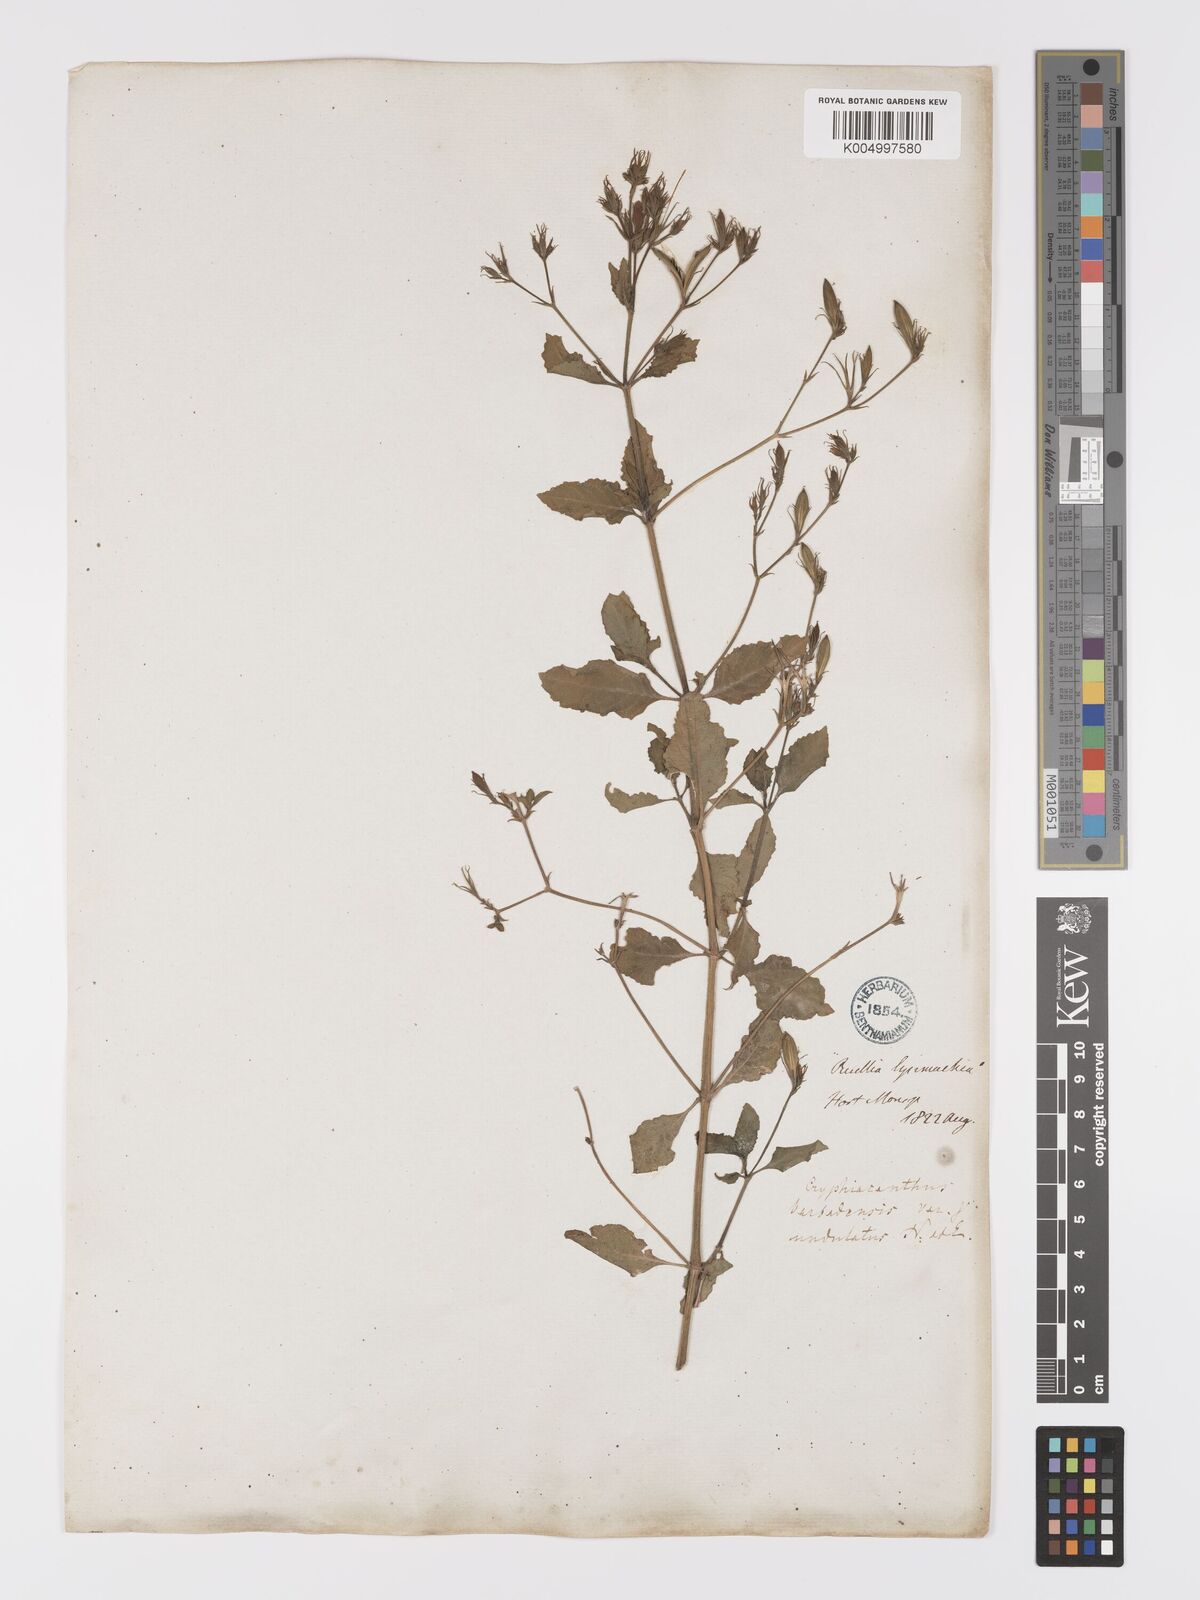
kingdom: Plantae
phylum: Tracheophyta
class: Magnoliopsida
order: Lamiales
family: Acanthaceae
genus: Ruellia
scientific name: Ruellia tuberosa
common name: Devil's bit
